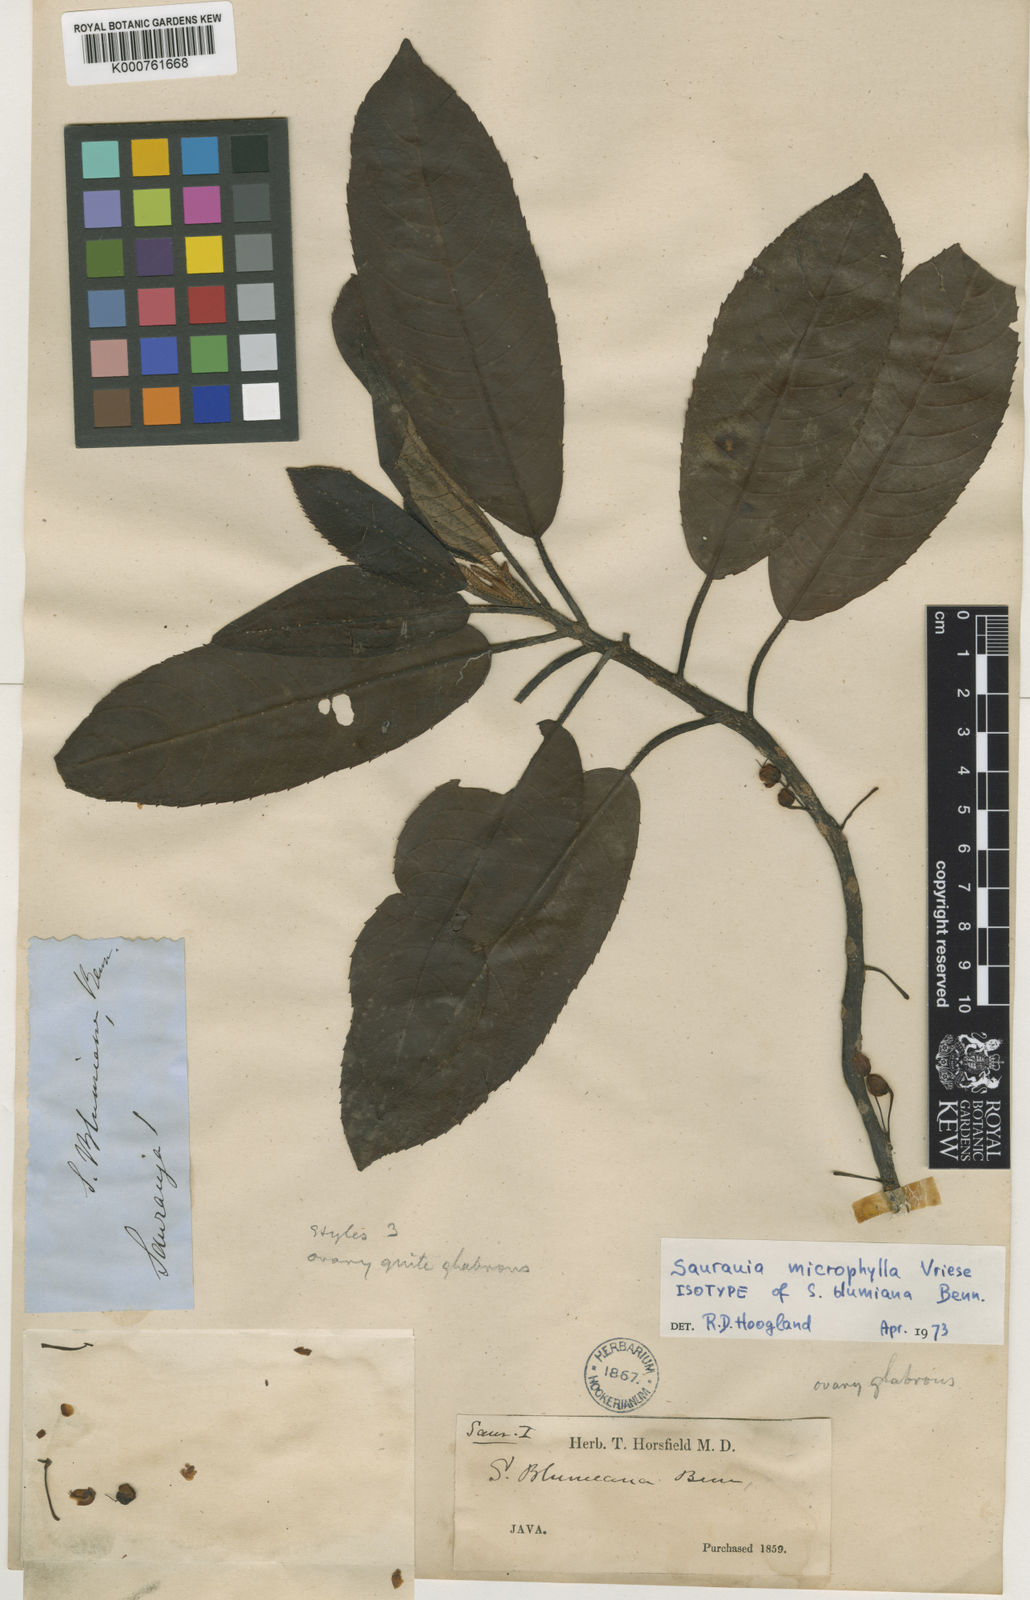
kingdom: Plantae
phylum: Tracheophyta
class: Magnoliopsida
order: Ericales
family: Actinidiaceae
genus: Saurauia
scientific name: Saurauia microphylla
